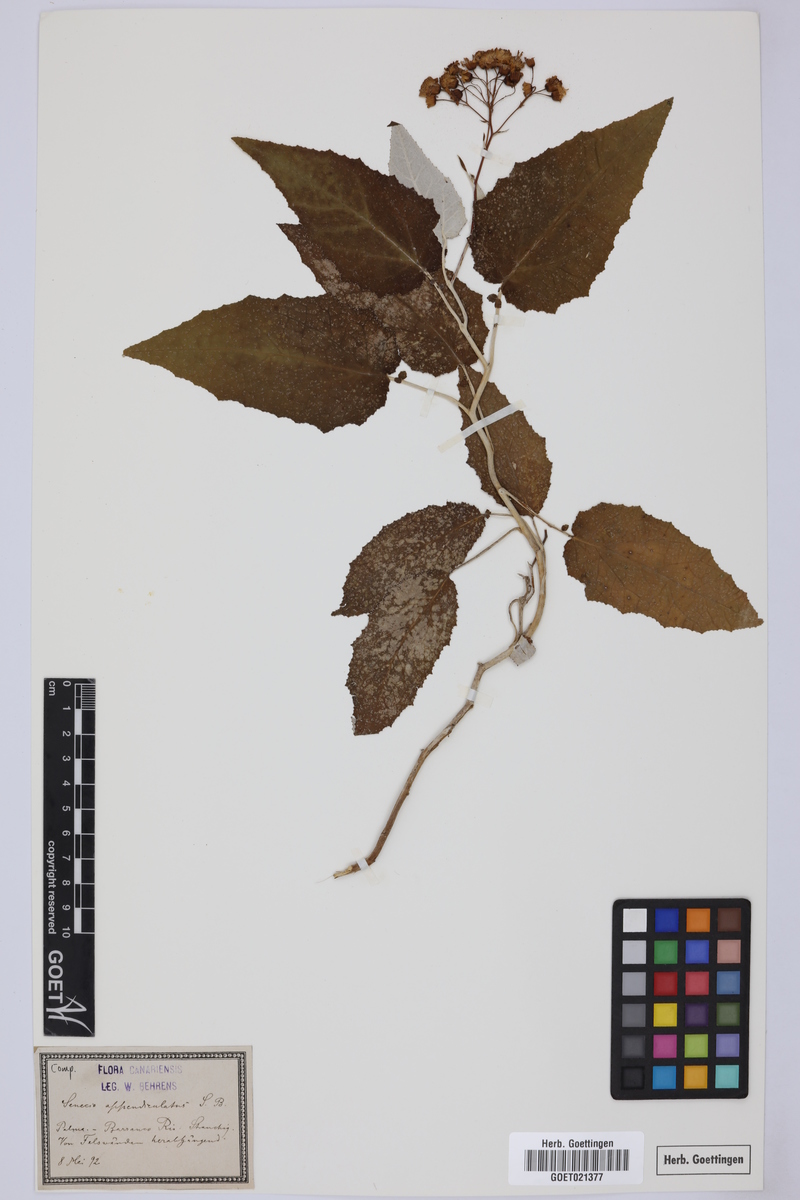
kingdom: Plantae
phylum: Tracheophyta
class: Magnoliopsida
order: Asterales
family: Asteraceae
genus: Senecio
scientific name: Senecio appendiculatus
